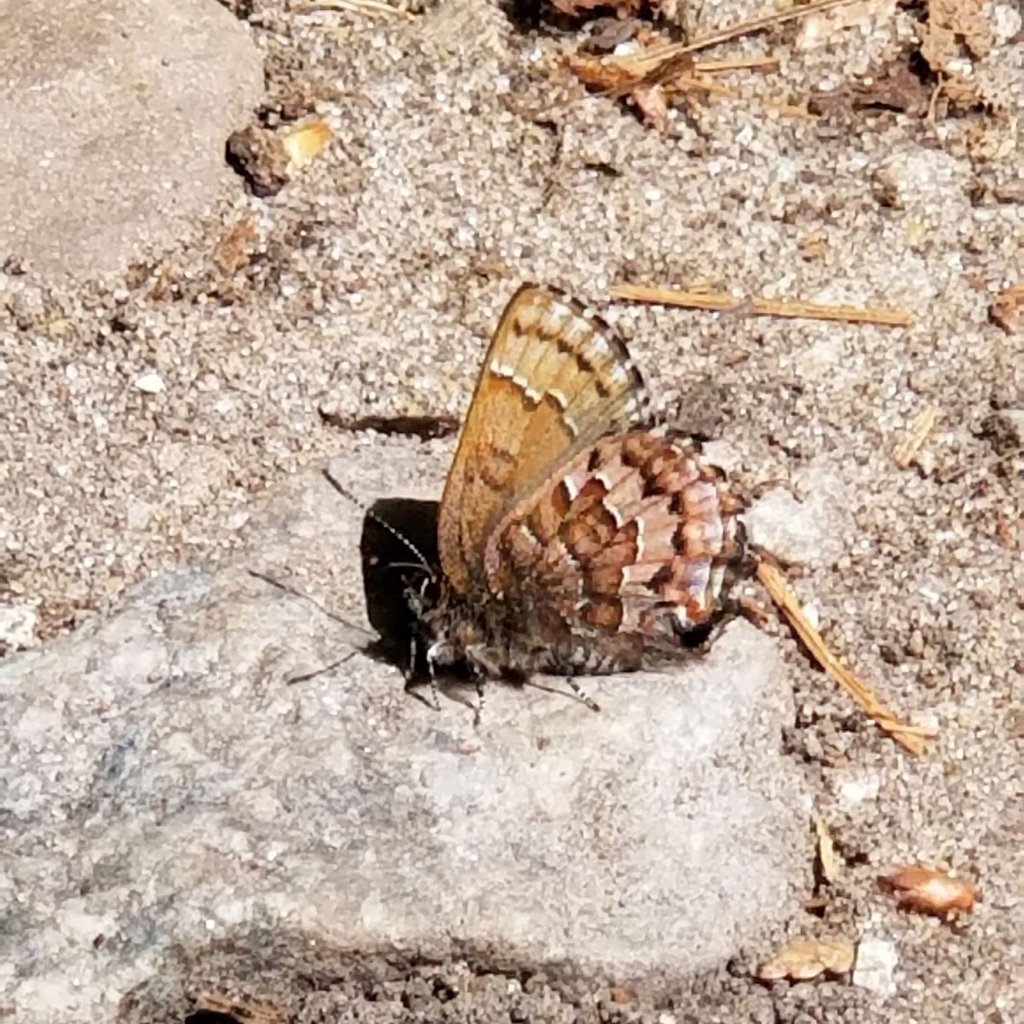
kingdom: Animalia
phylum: Arthropoda
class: Insecta
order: Lepidoptera
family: Lycaenidae
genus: Incisalia
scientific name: Incisalia niphon
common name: Eastern Pine Elfin
